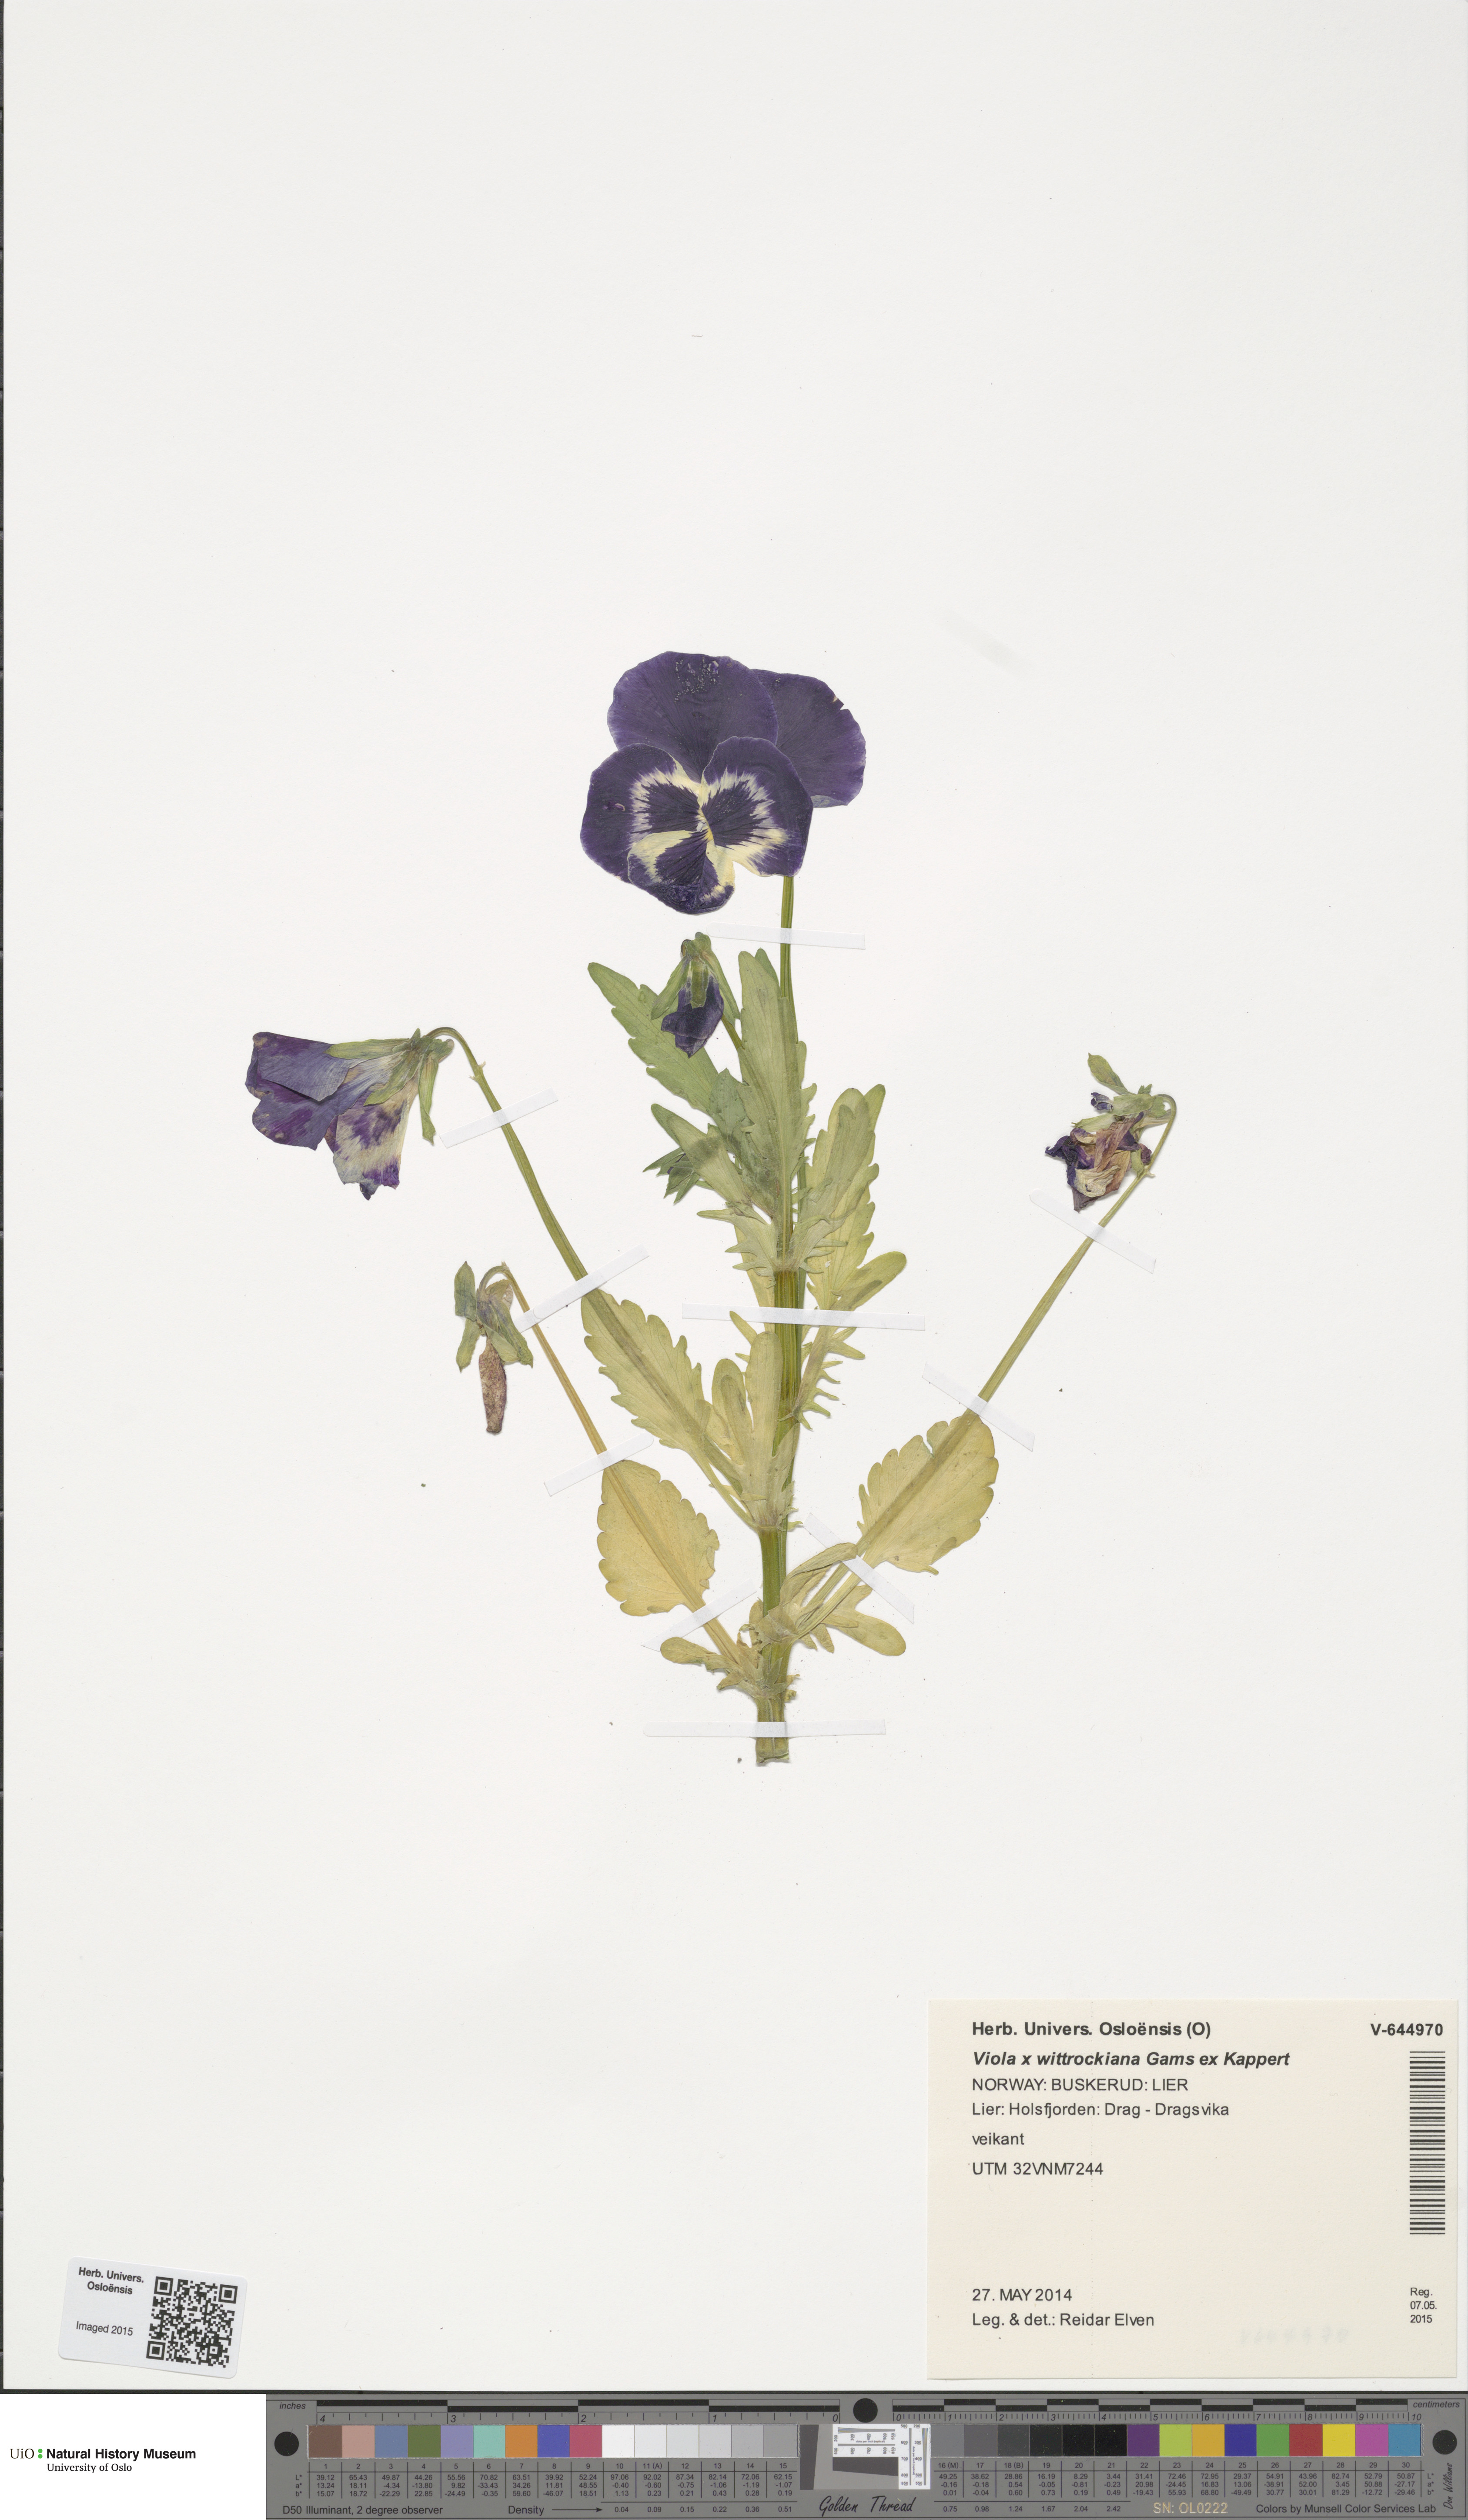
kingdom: Plantae
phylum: Tracheophyta
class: Magnoliopsida
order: Malpighiales
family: Violaceae
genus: Viola
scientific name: Viola wittrockiana
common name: Garden pansy
